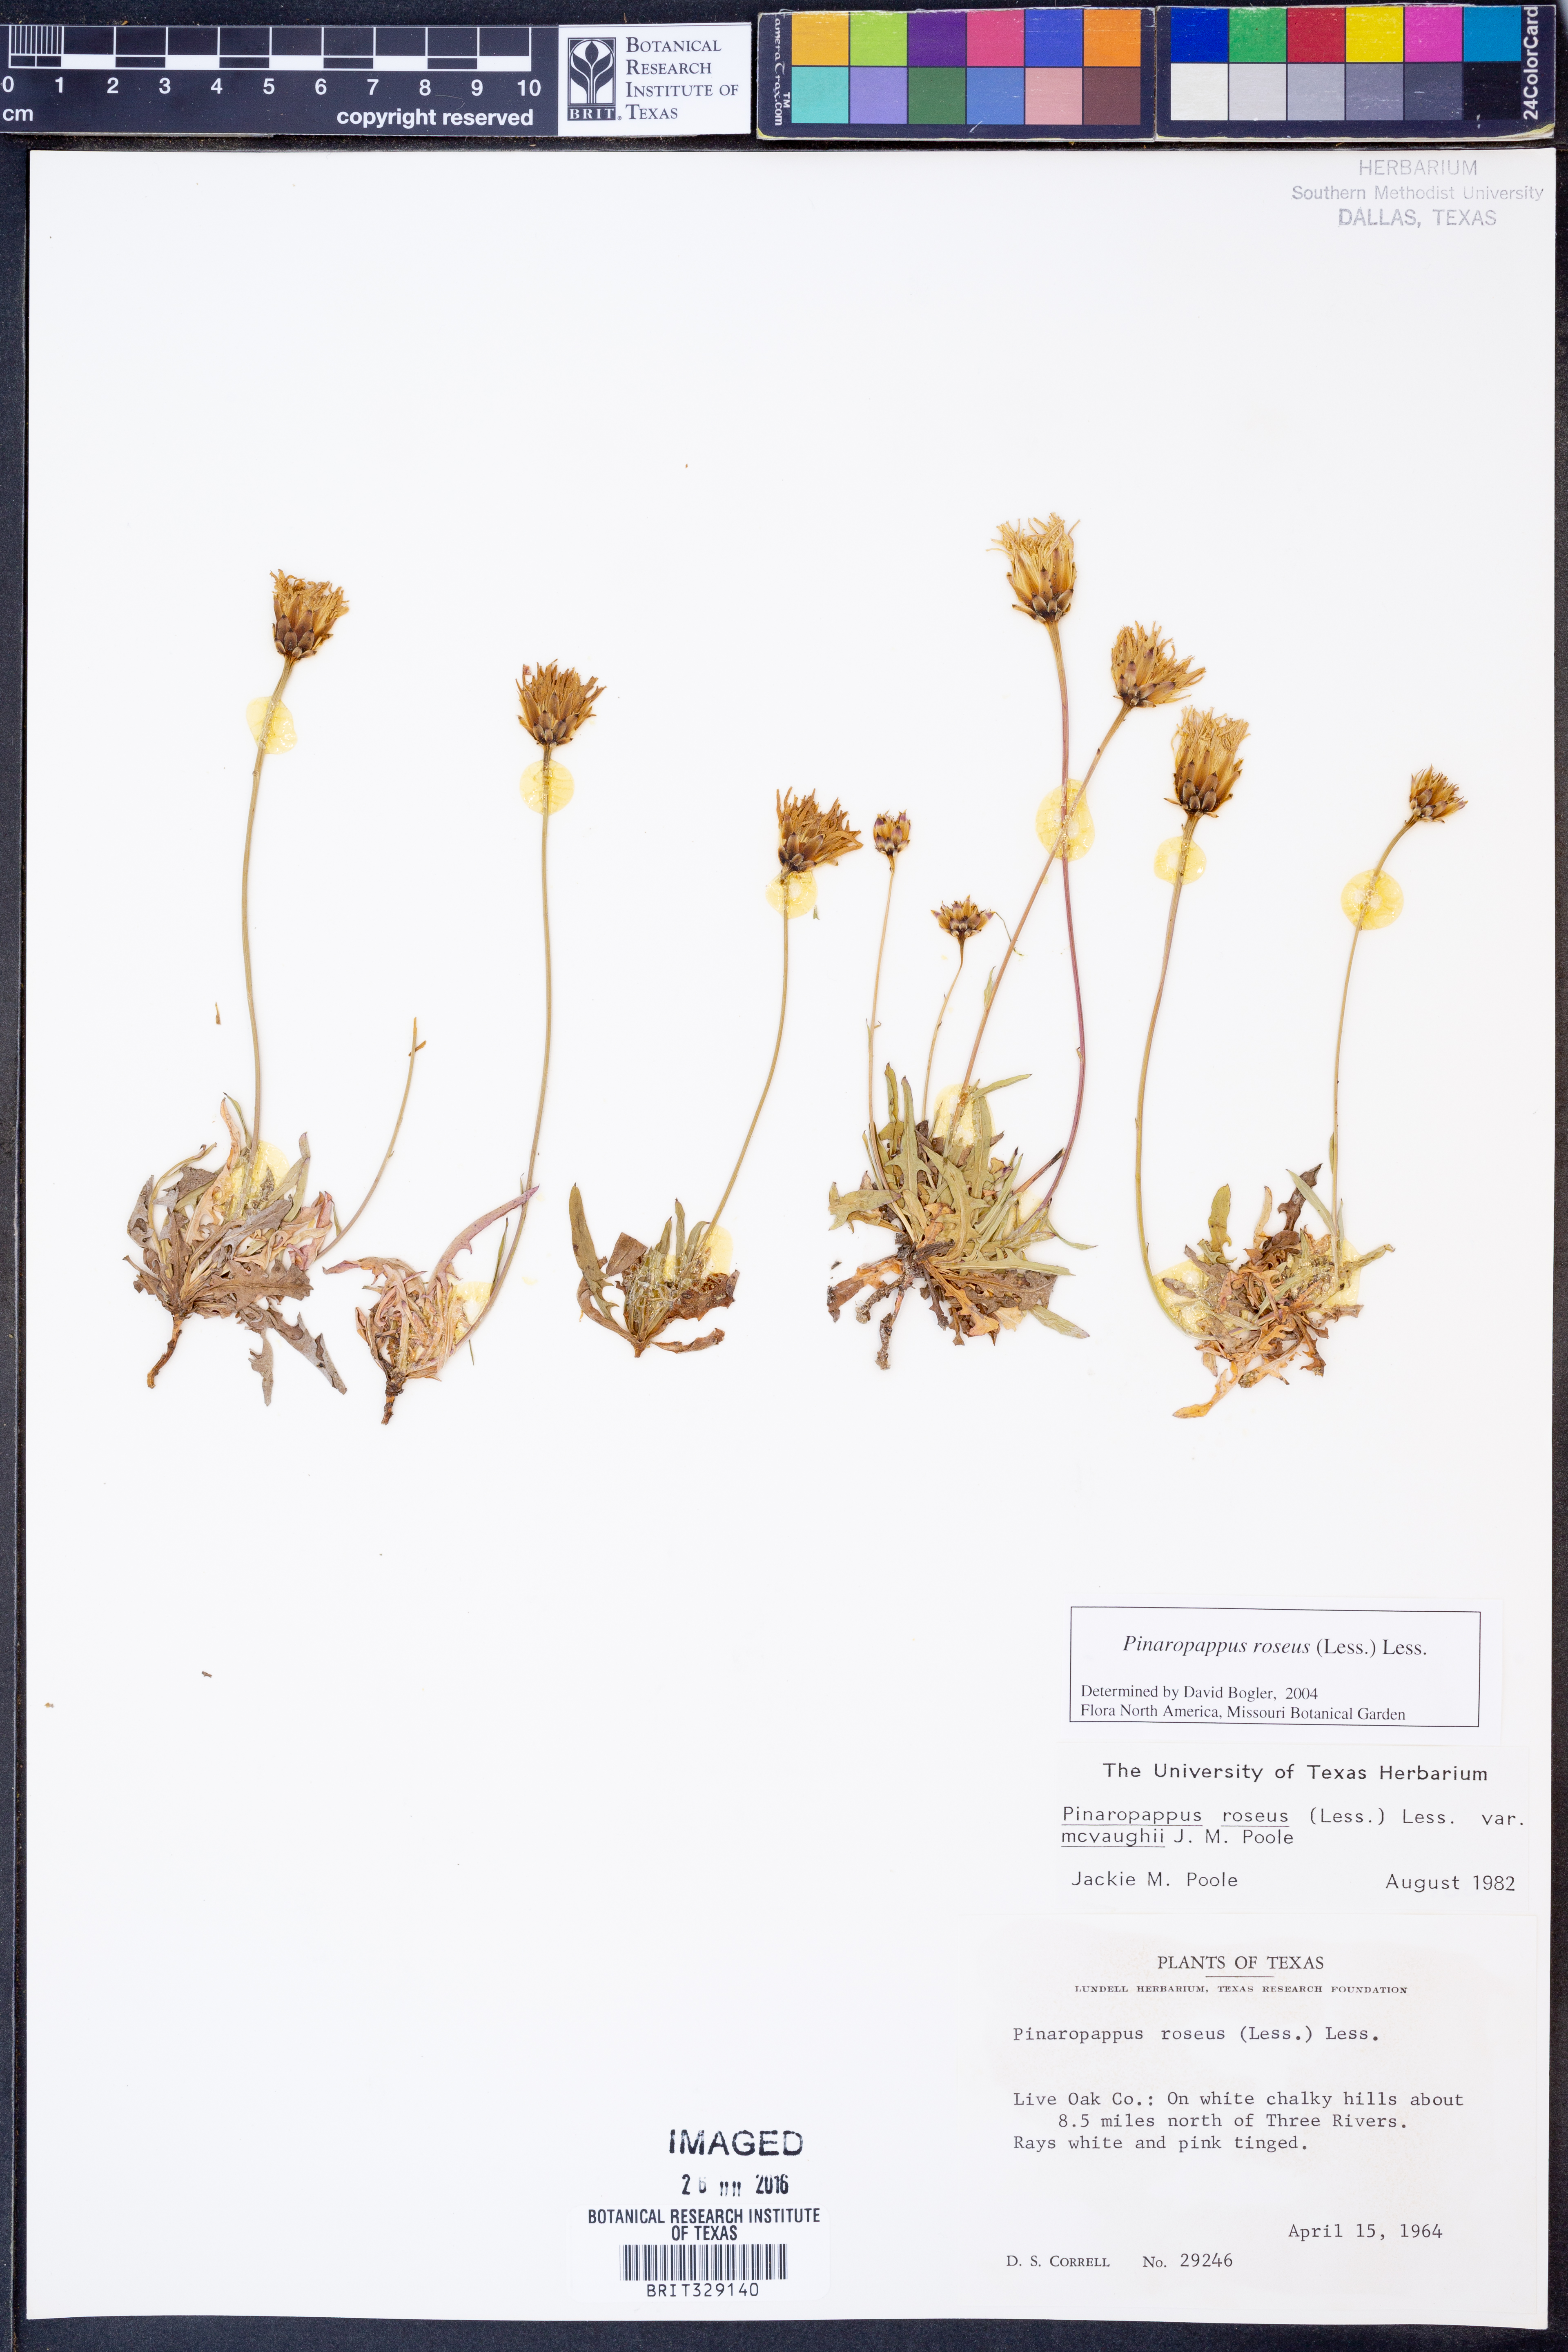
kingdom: Plantae
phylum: Tracheophyta
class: Magnoliopsida
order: Asterales
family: Asteraceae
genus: Pinaropappus
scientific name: Pinaropappus roseus
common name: Rock-lettuce
